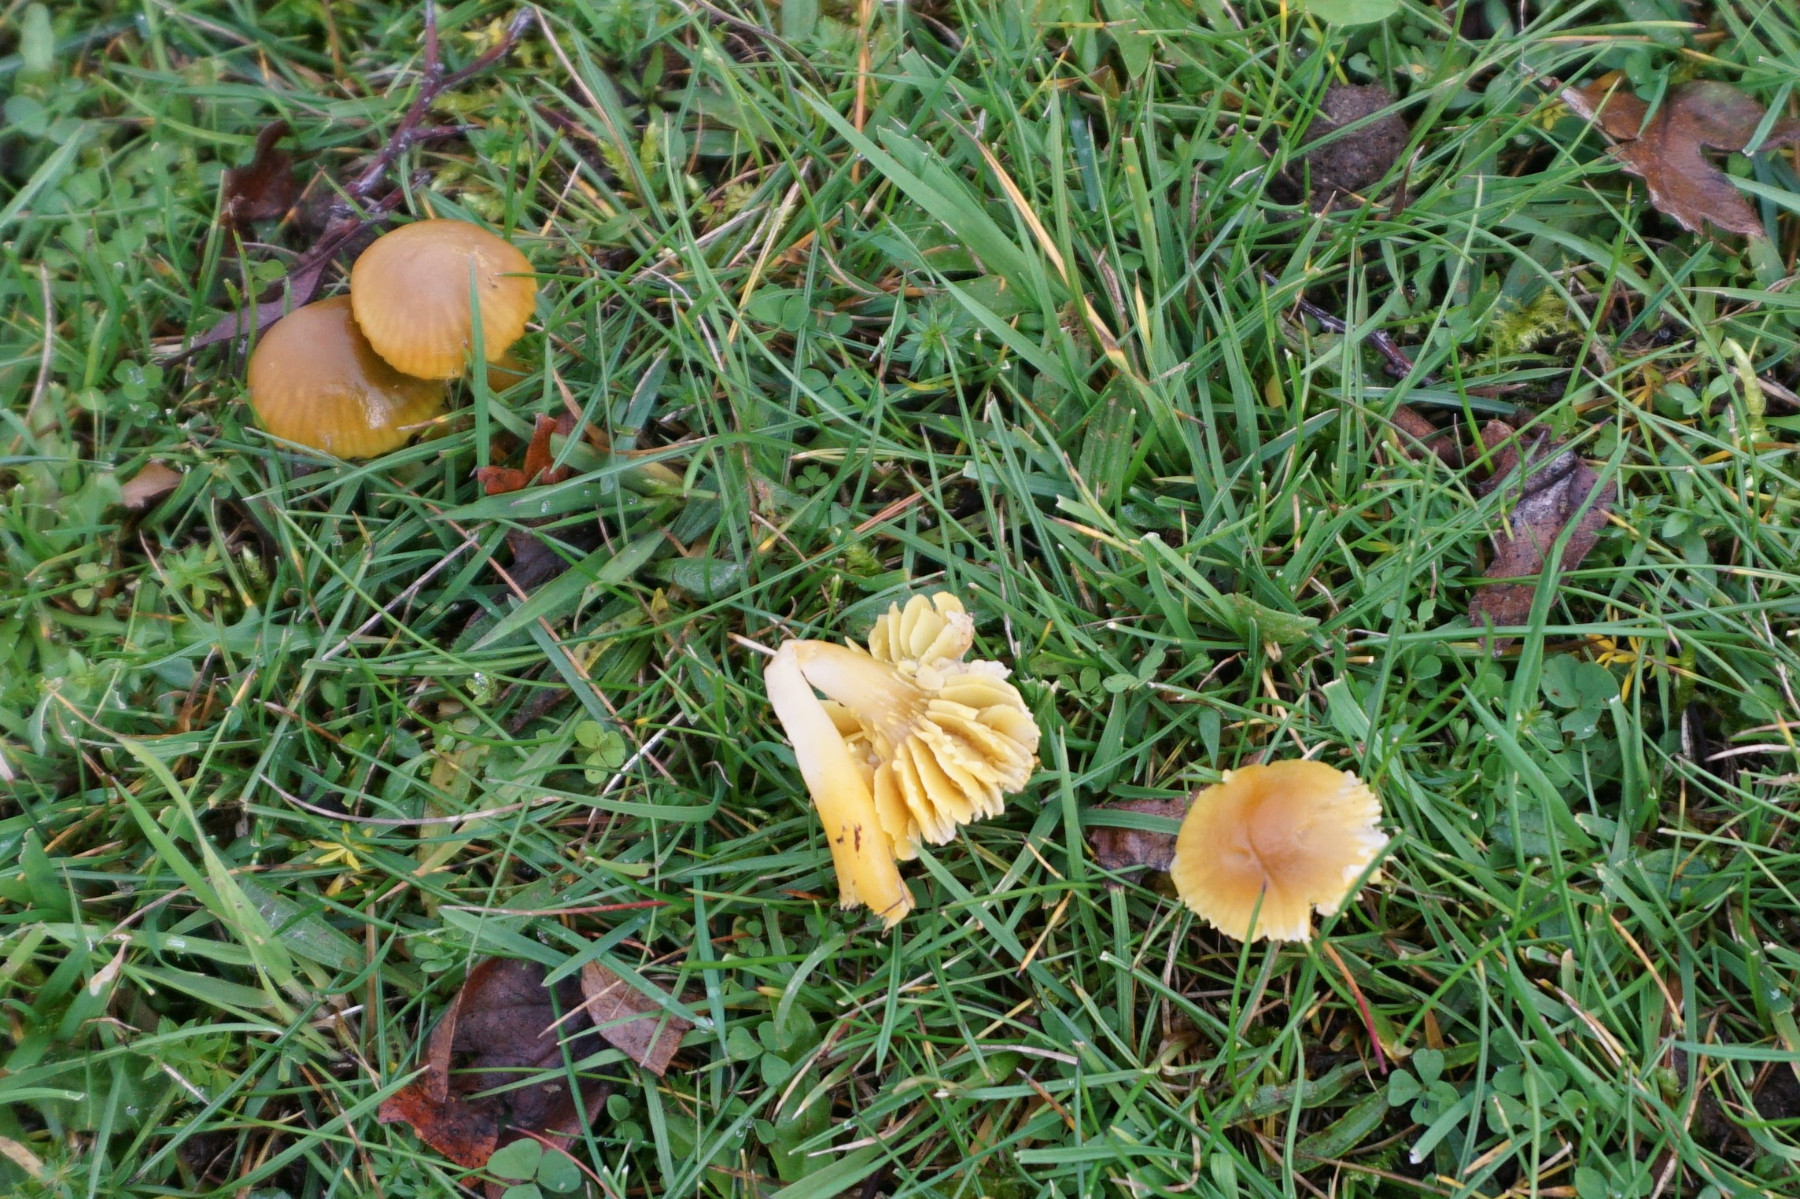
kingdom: Fungi
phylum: Basidiomycota
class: Agaricomycetes
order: Agaricales
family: Hygrophoraceae
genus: Gliophorus
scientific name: Gliophorus psittacinus
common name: papegøje-vokshat
